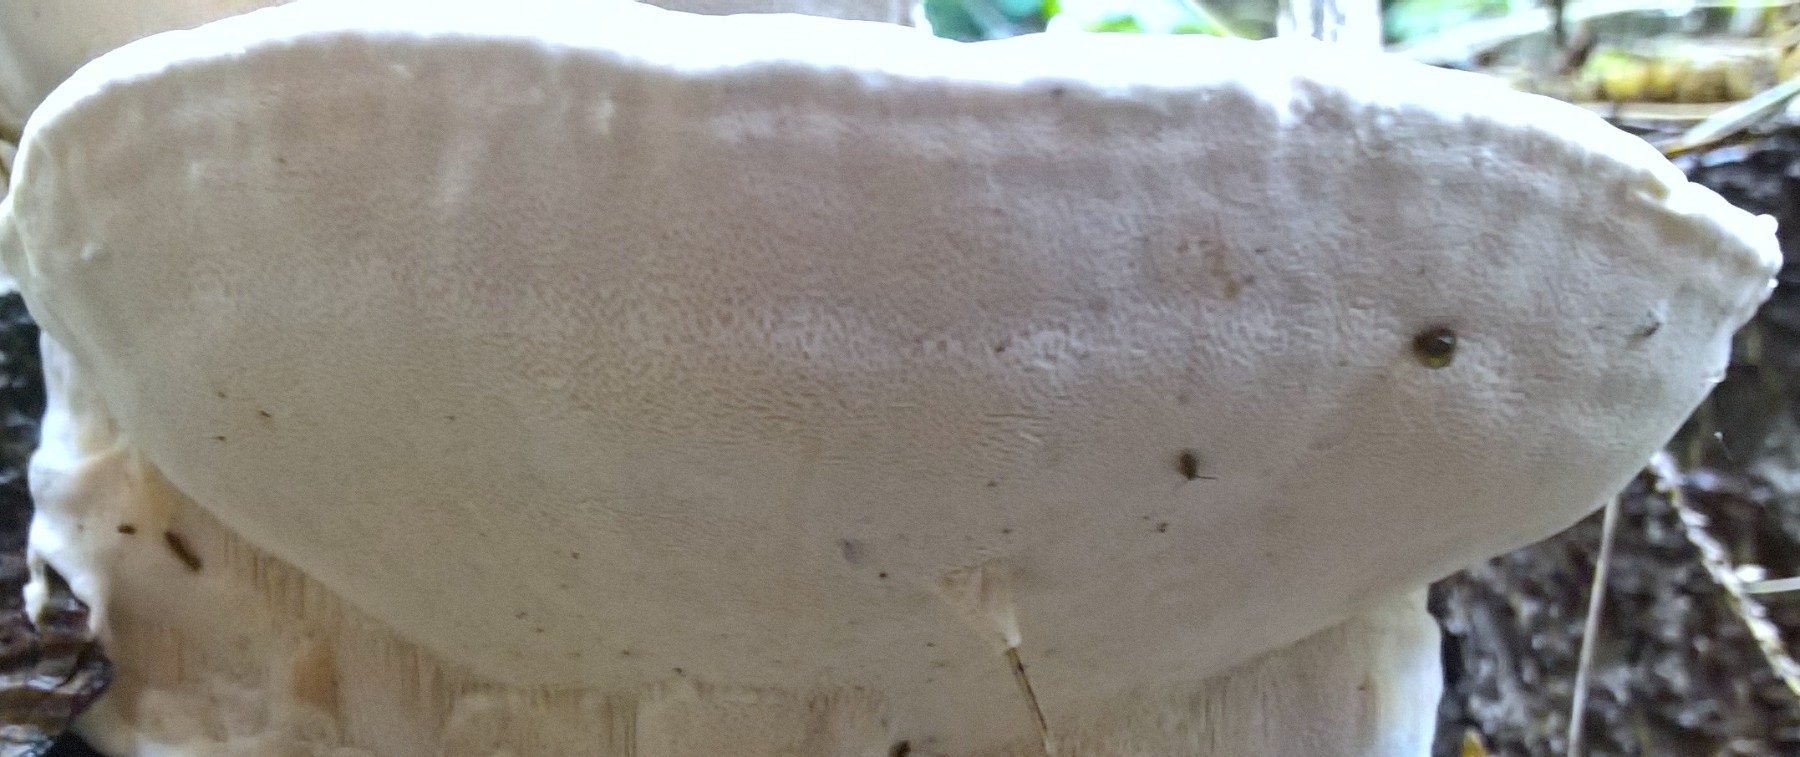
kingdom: Fungi
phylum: Basidiomycota
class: Agaricomycetes
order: Russulales
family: Bondarzewiaceae
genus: Heterobasidion
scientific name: Heterobasidion annosum
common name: almindelig rodfordærver
